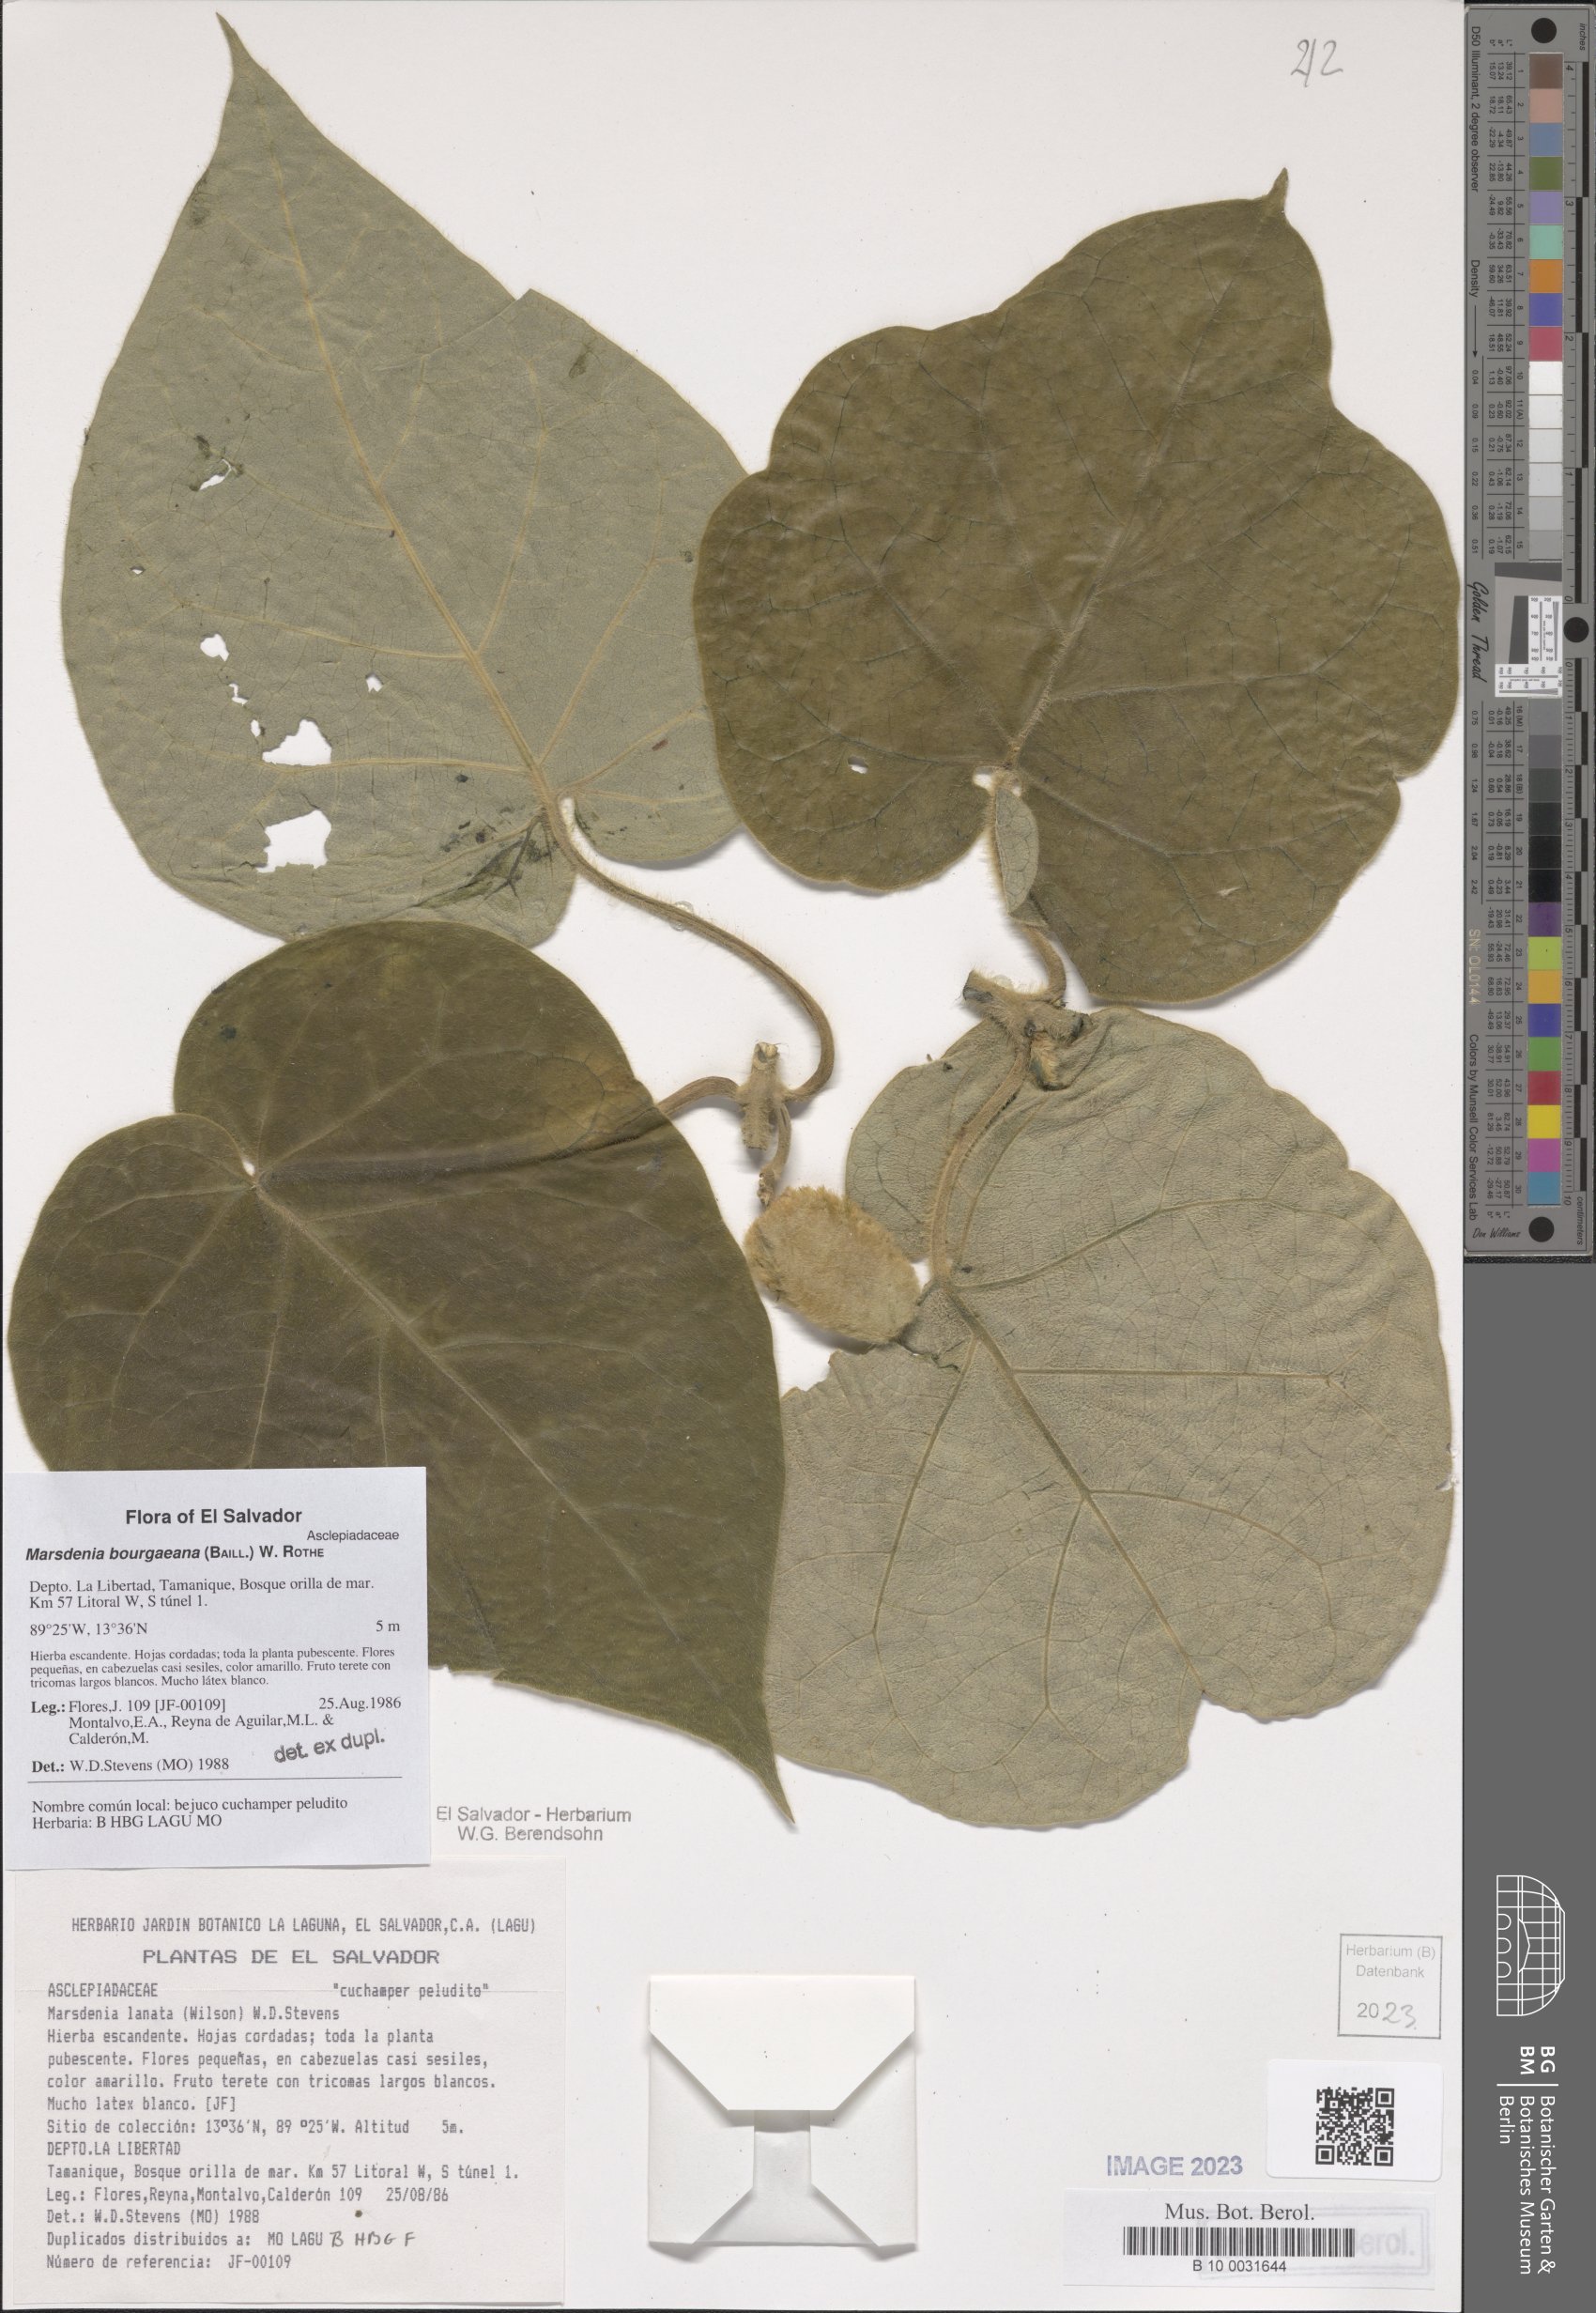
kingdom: Plantae
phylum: Tracheophyta
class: Magnoliopsida
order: Gentianales
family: Apocynaceae
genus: Ruehssia
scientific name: Ruehssia bourgaeana
